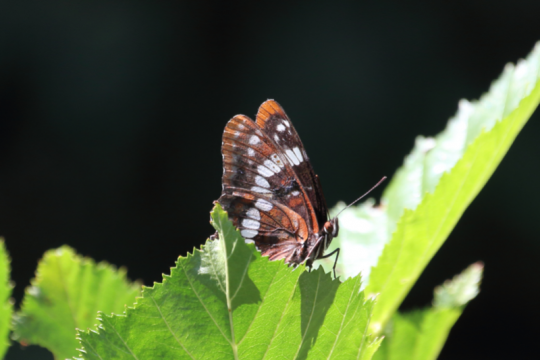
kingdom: Animalia
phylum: Arthropoda
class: Insecta
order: Lepidoptera
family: Nymphalidae
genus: Limenitis
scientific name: Limenitis lorquini
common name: Lorquin's Admiral
